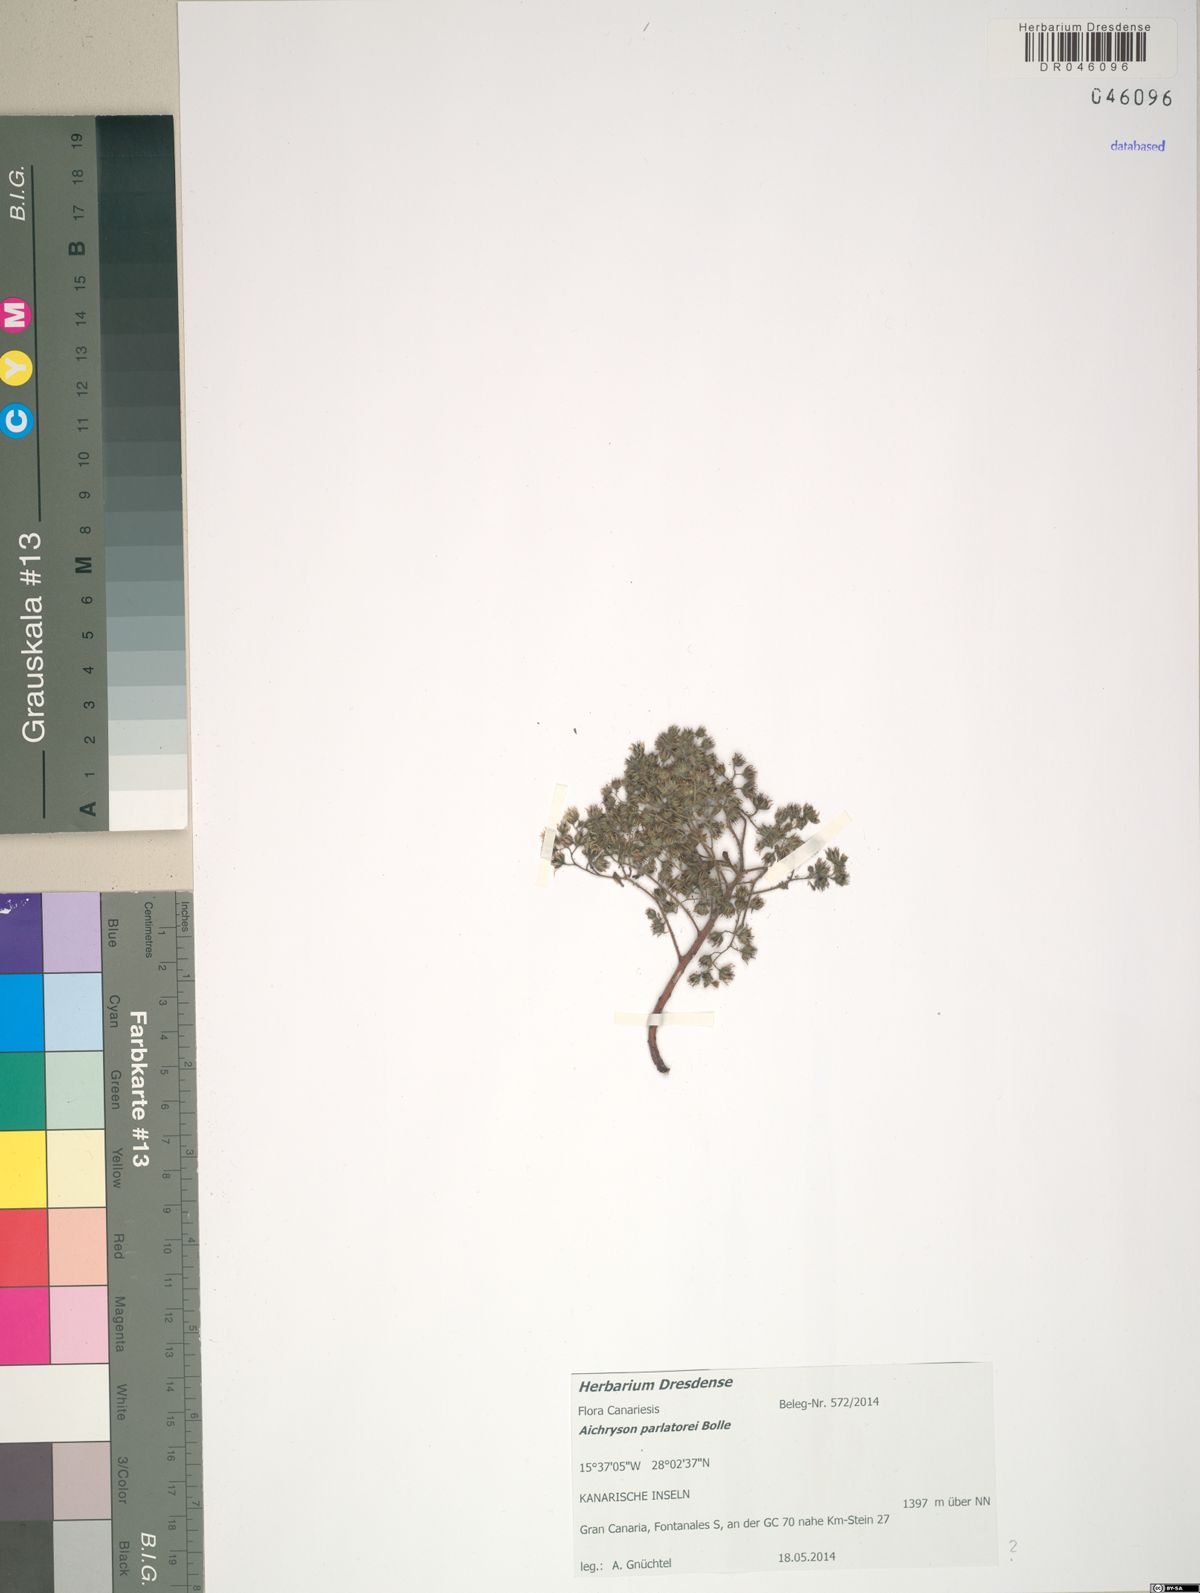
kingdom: Plantae
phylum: Tracheophyta
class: Magnoliopsida
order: Saxifragales
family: Crassulaceae
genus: Aichryson
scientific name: Aichryson parlatorei
